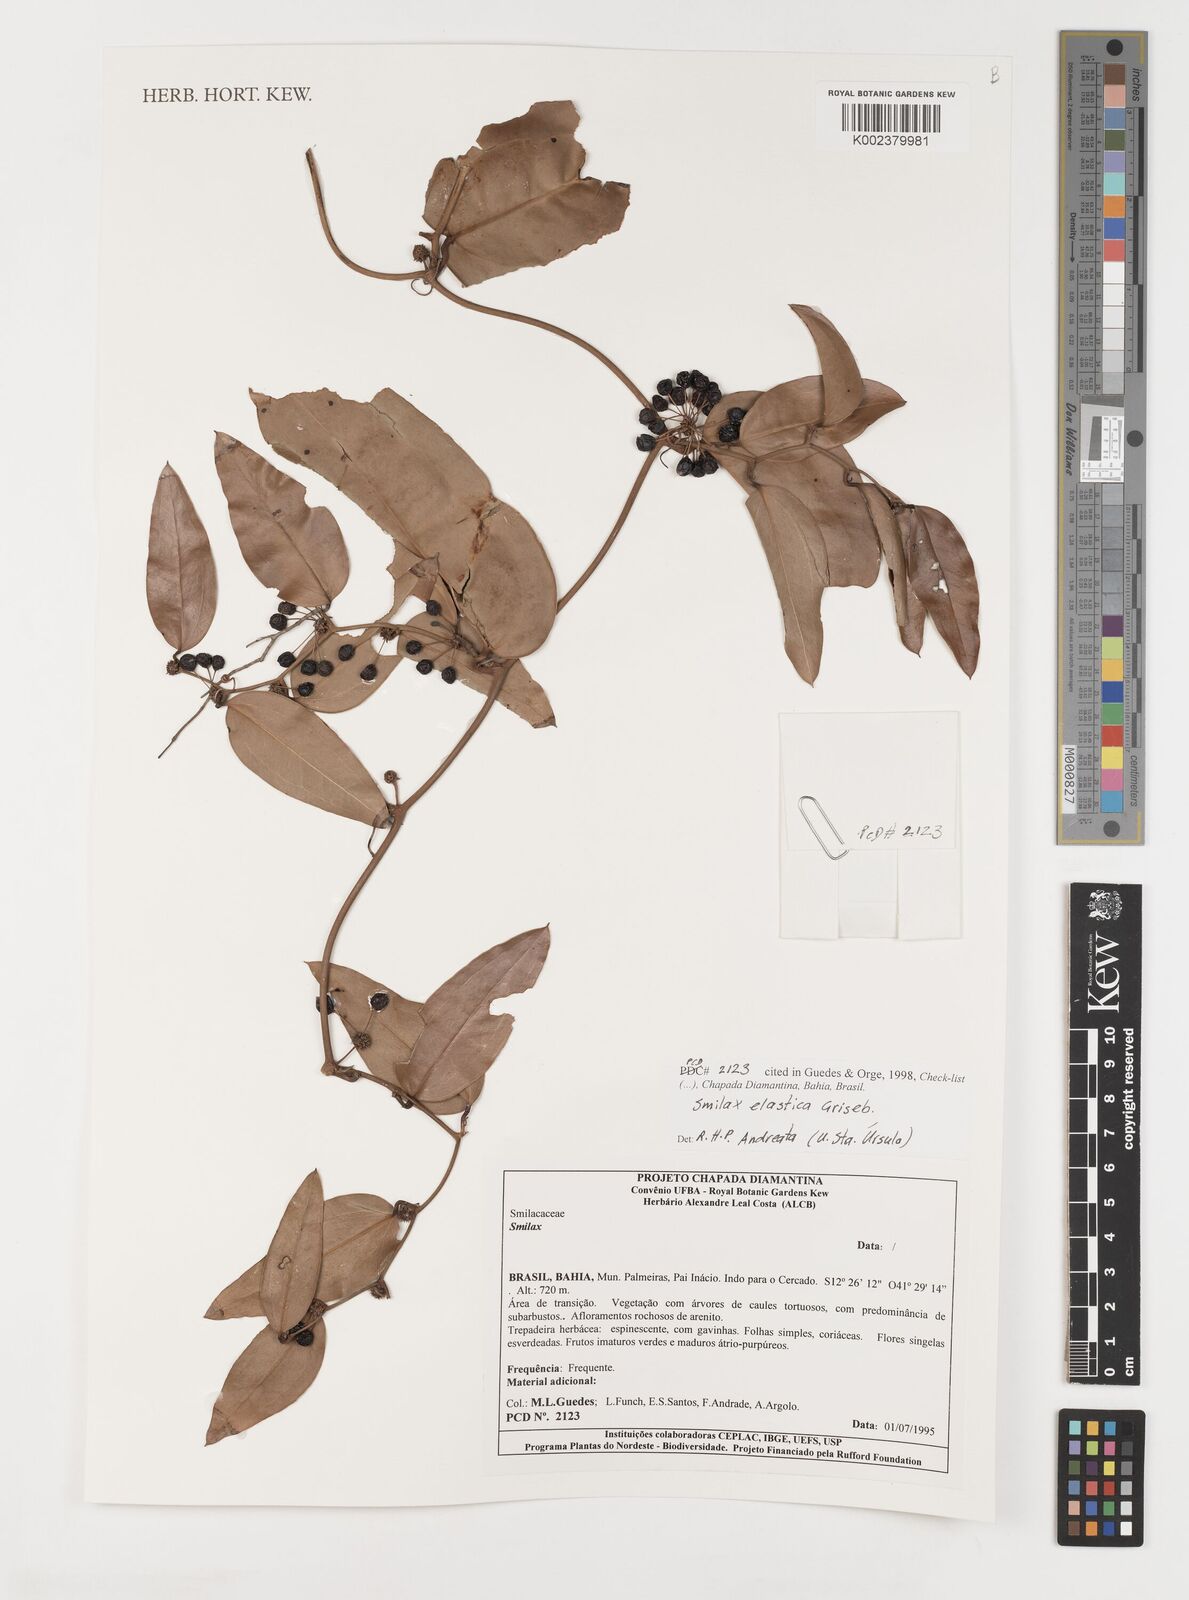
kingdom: Plantae
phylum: Tracheophyta
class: Liliopsida
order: Liliales
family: Smilacaceae
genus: Smilax
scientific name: Smilax elastica
